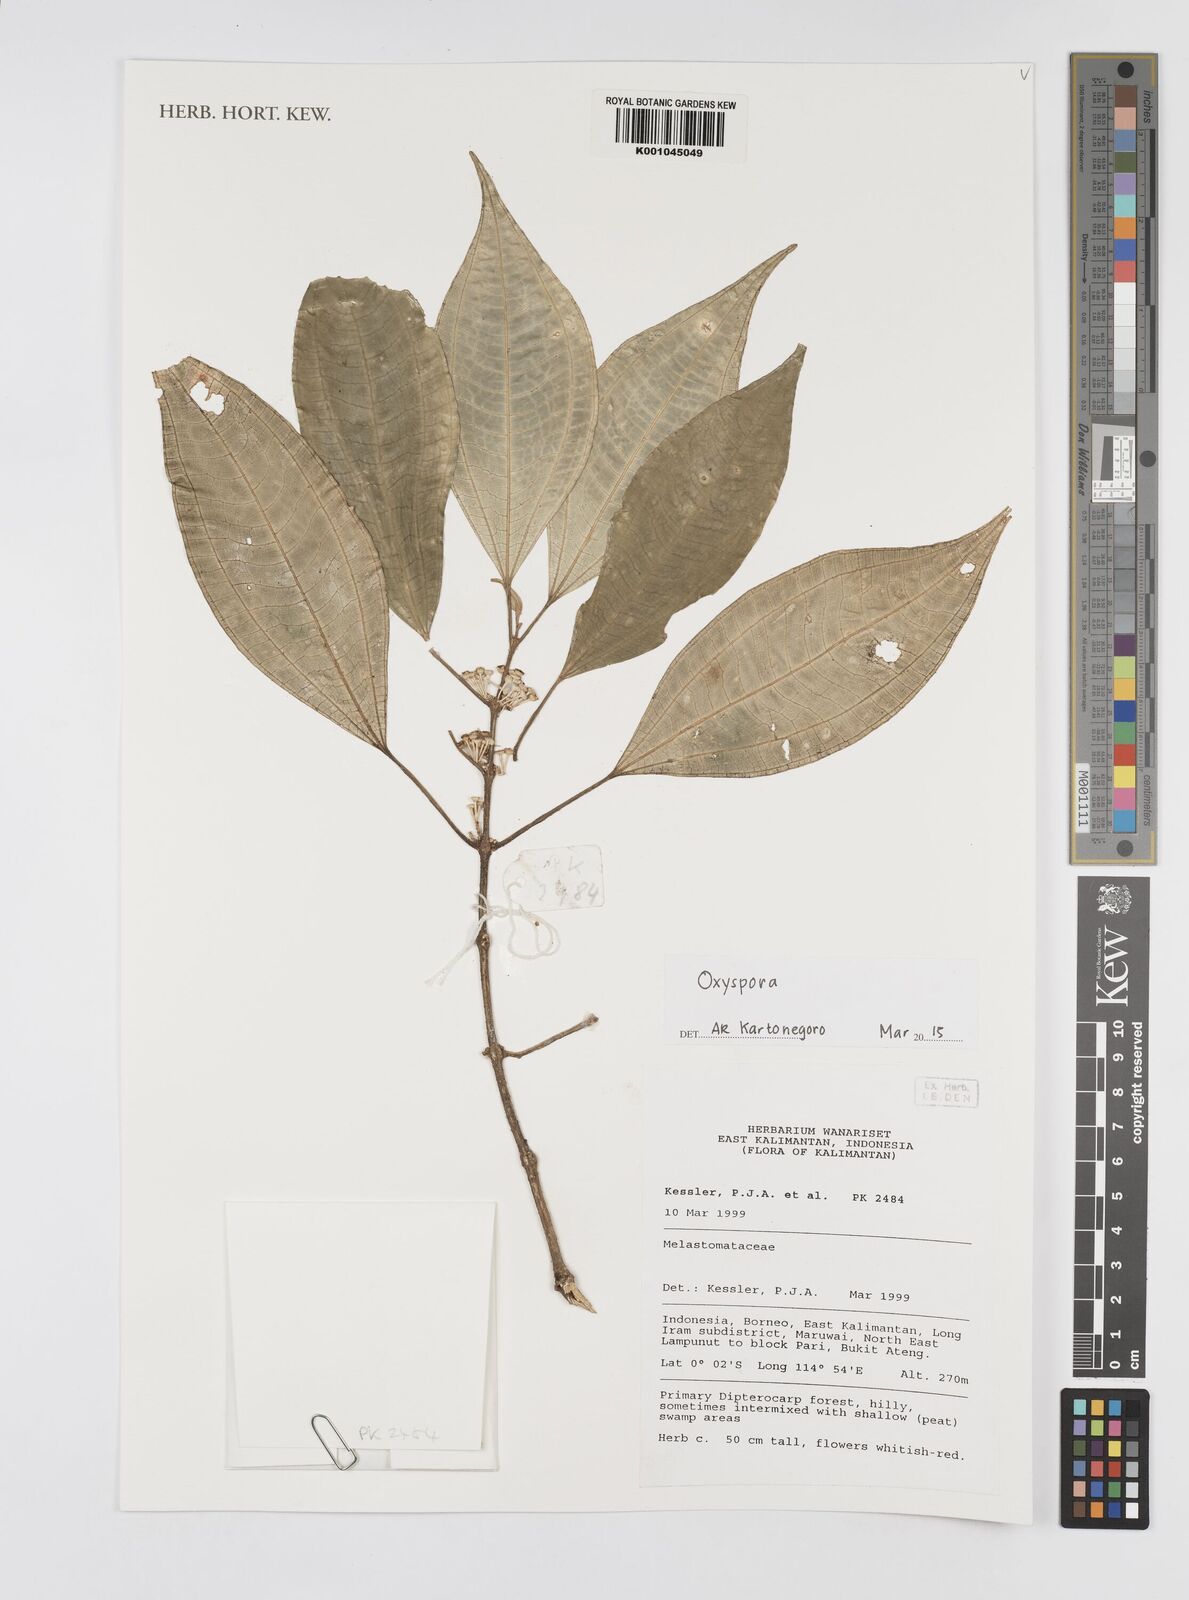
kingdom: Plantae
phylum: Tracheophyta
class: Magnoliopsida
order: Myrtales
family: Melastomataceae
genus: Oxyspora
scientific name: Oxyspora
